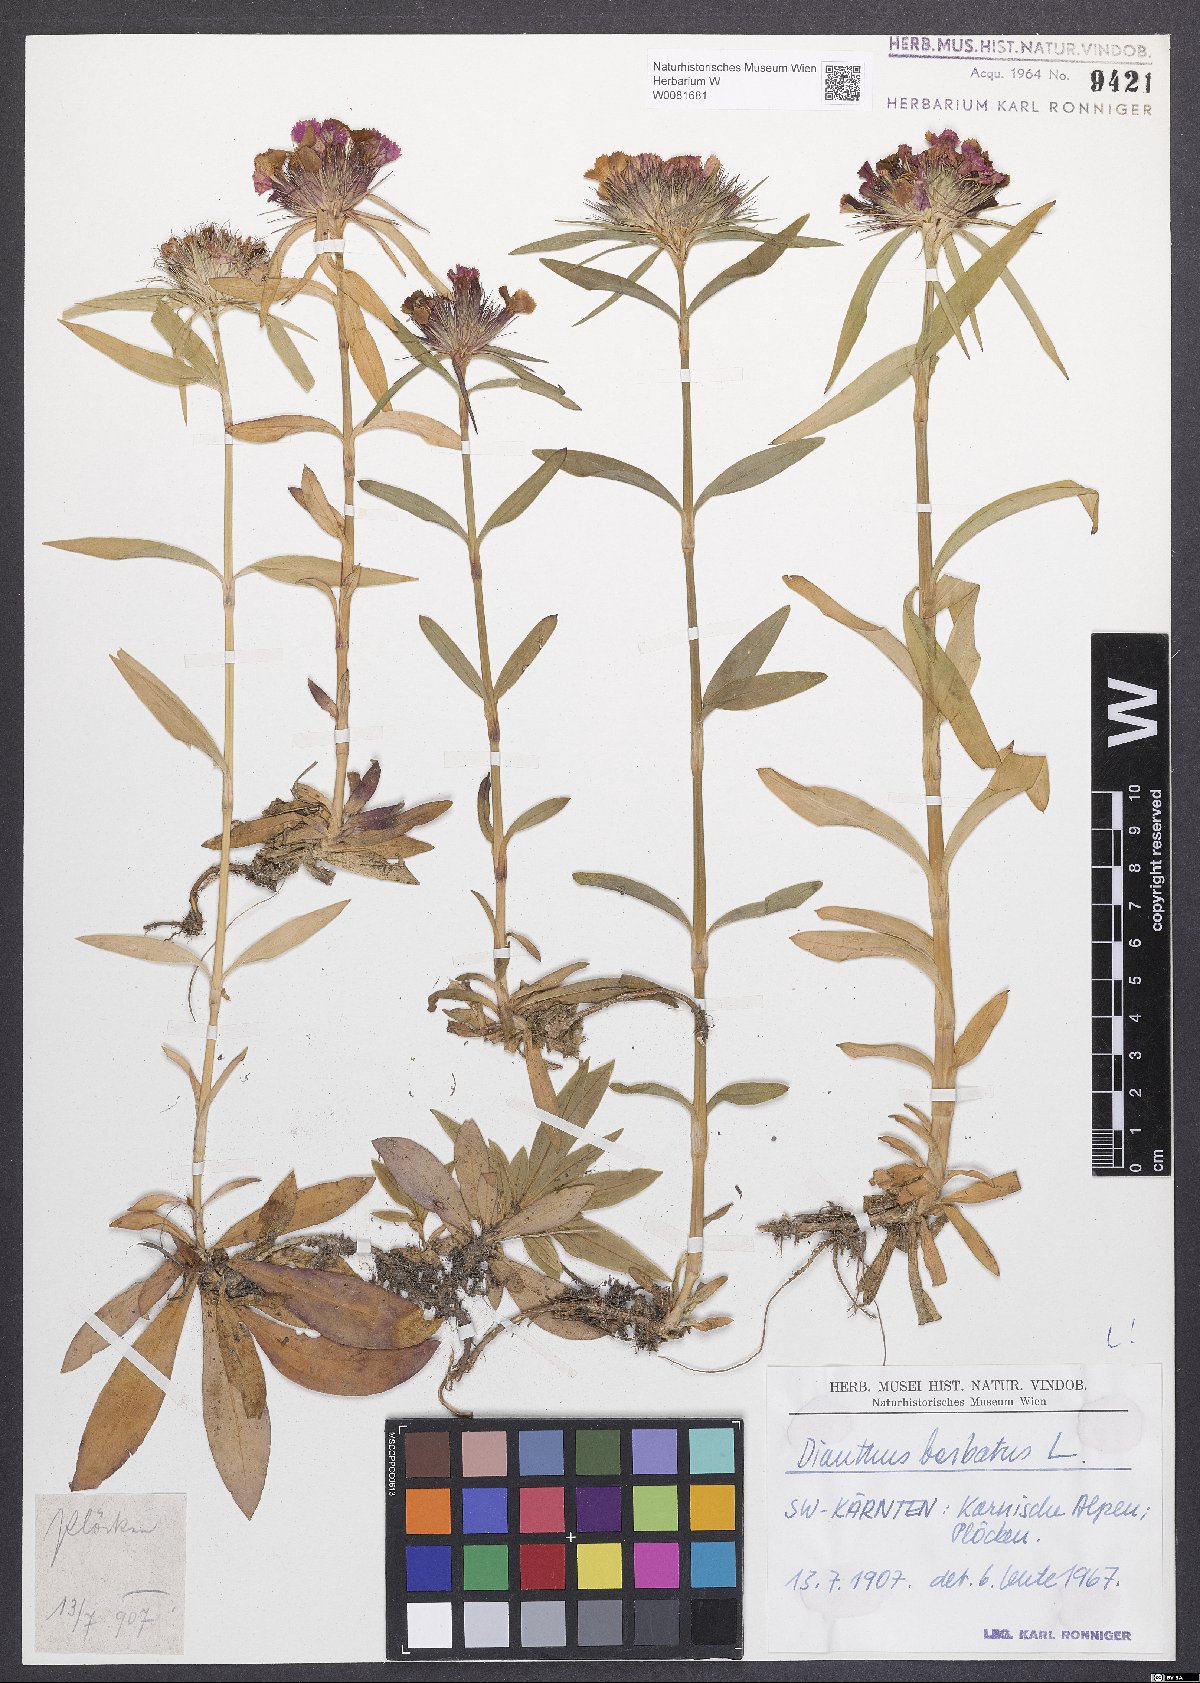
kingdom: Plantae
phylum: Tracheophyta
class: Magnoliopsida
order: Caryophyllales
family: Caryophyllaceae
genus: Dianthus
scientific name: Dianthus barbatus
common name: Sweet-william
